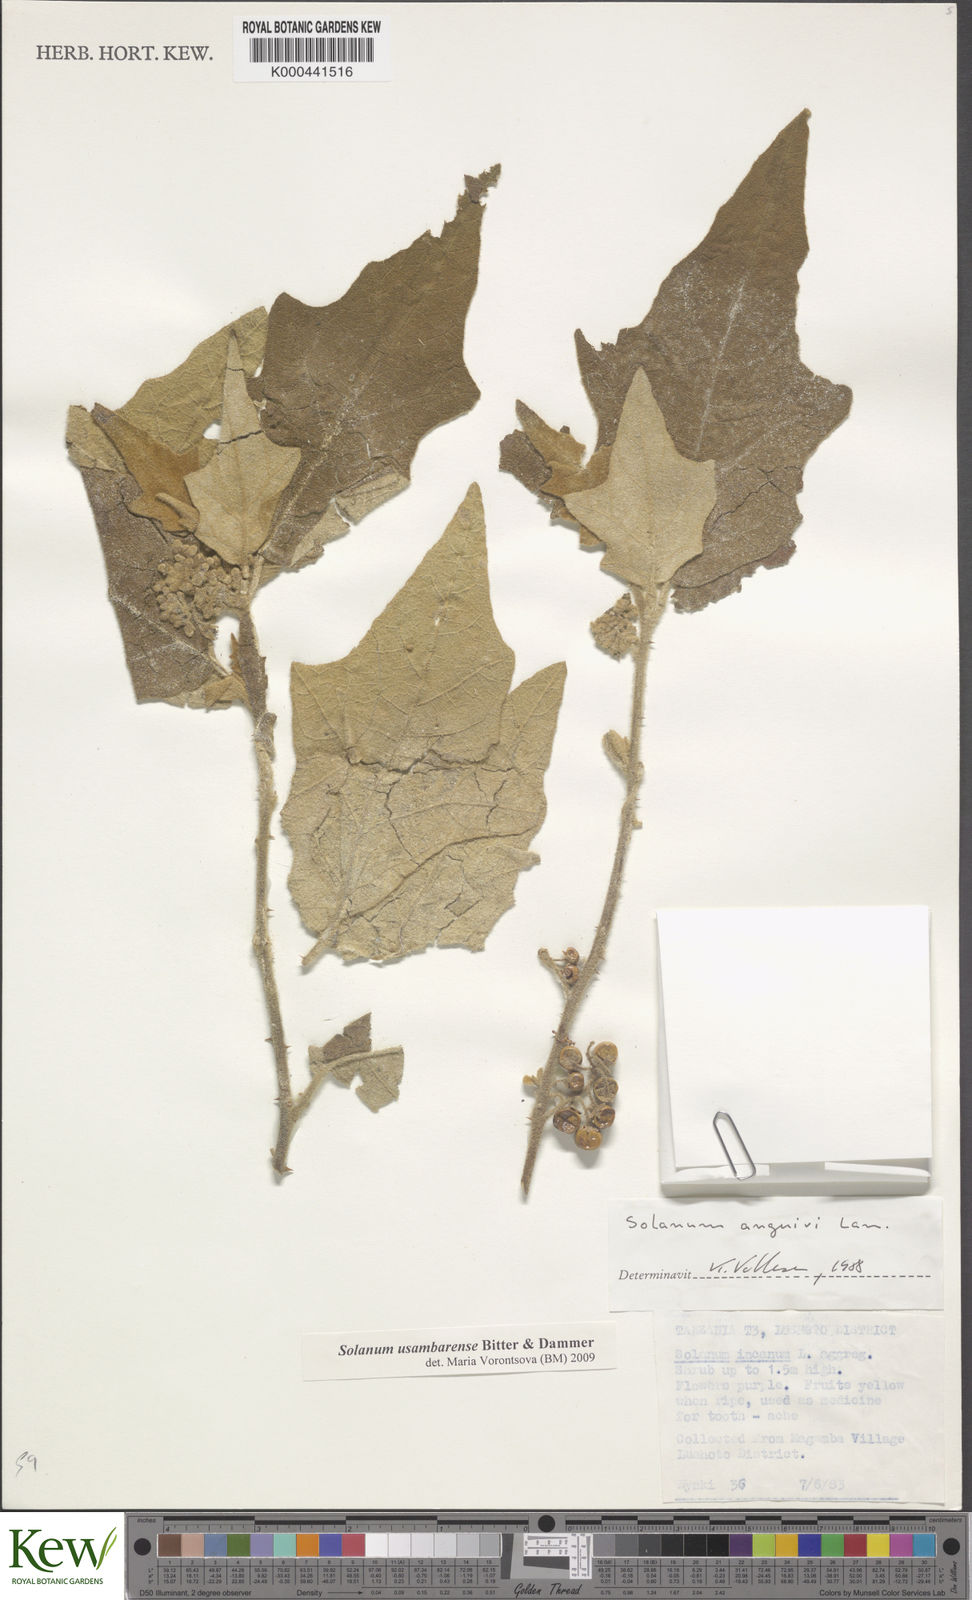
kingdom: Plantae
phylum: Tracheophyta
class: Magnoliopsida
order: Solanales
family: Solanaceae
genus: Solanum
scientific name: Solanum usambarense
